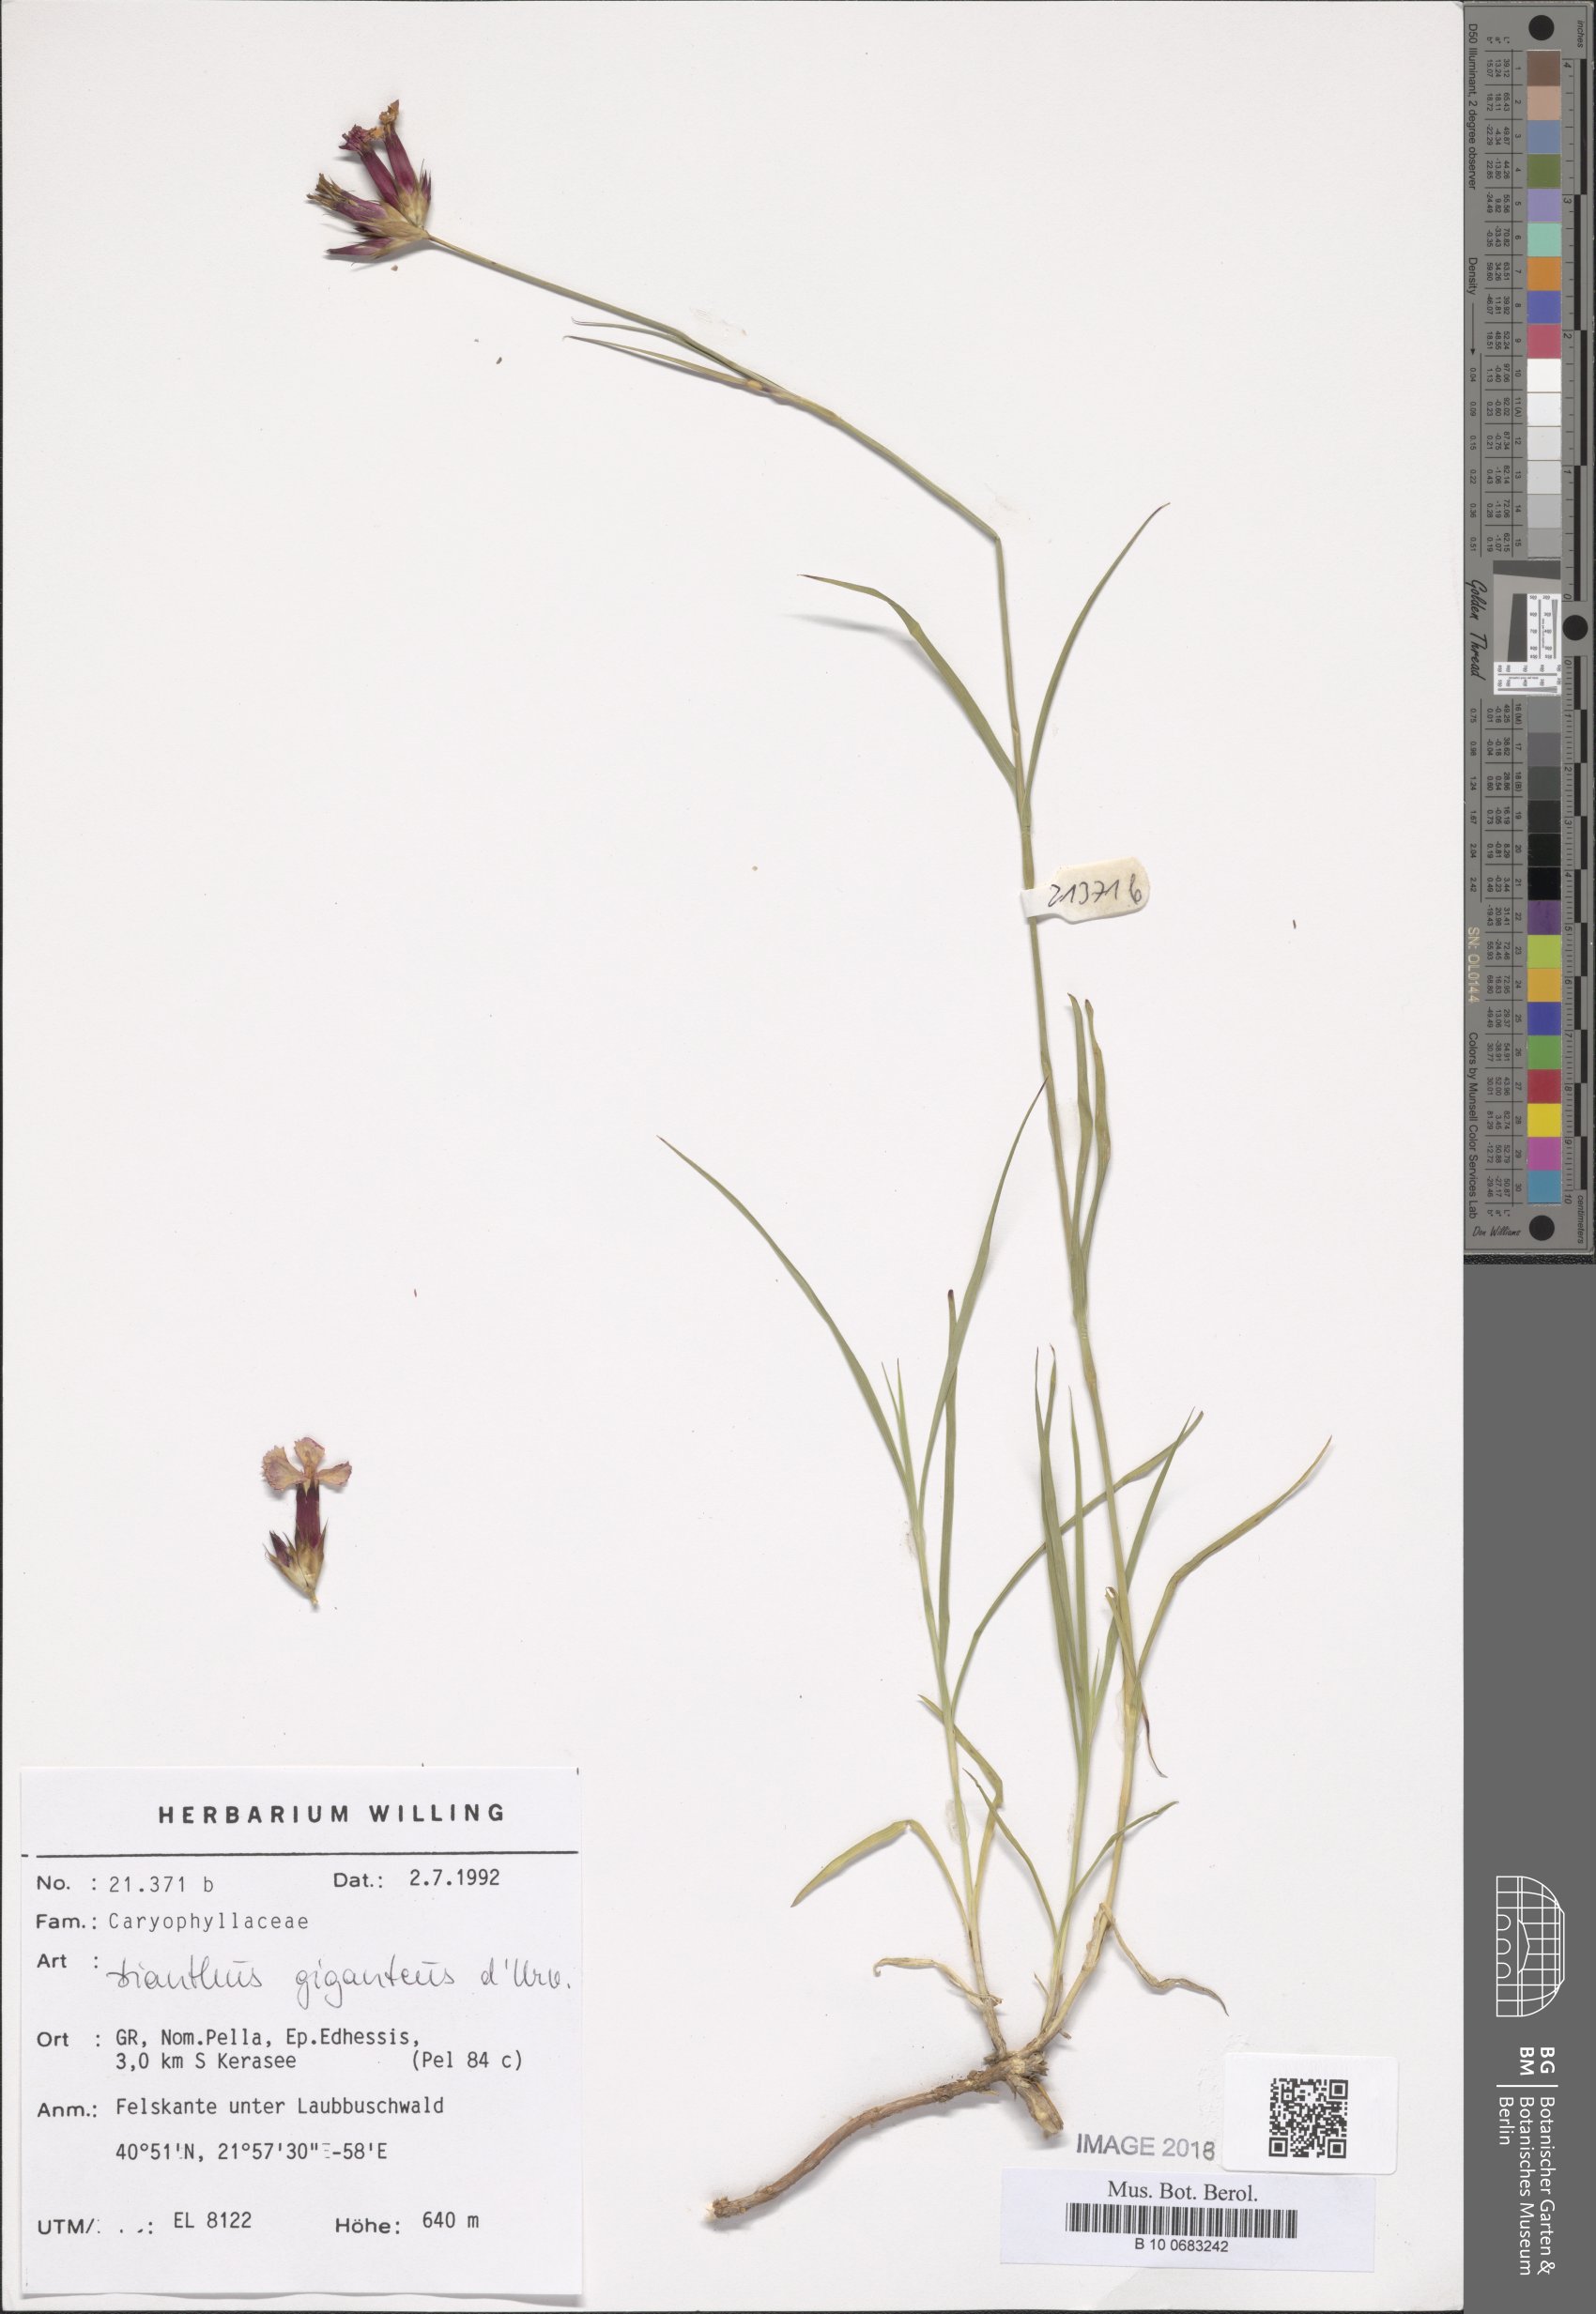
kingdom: Plantae
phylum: Tracheophyta
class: Magnoliopsida
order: Caryophyllales
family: Caryophyllaceae
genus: Dianthus
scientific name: Dianthus giganteus
